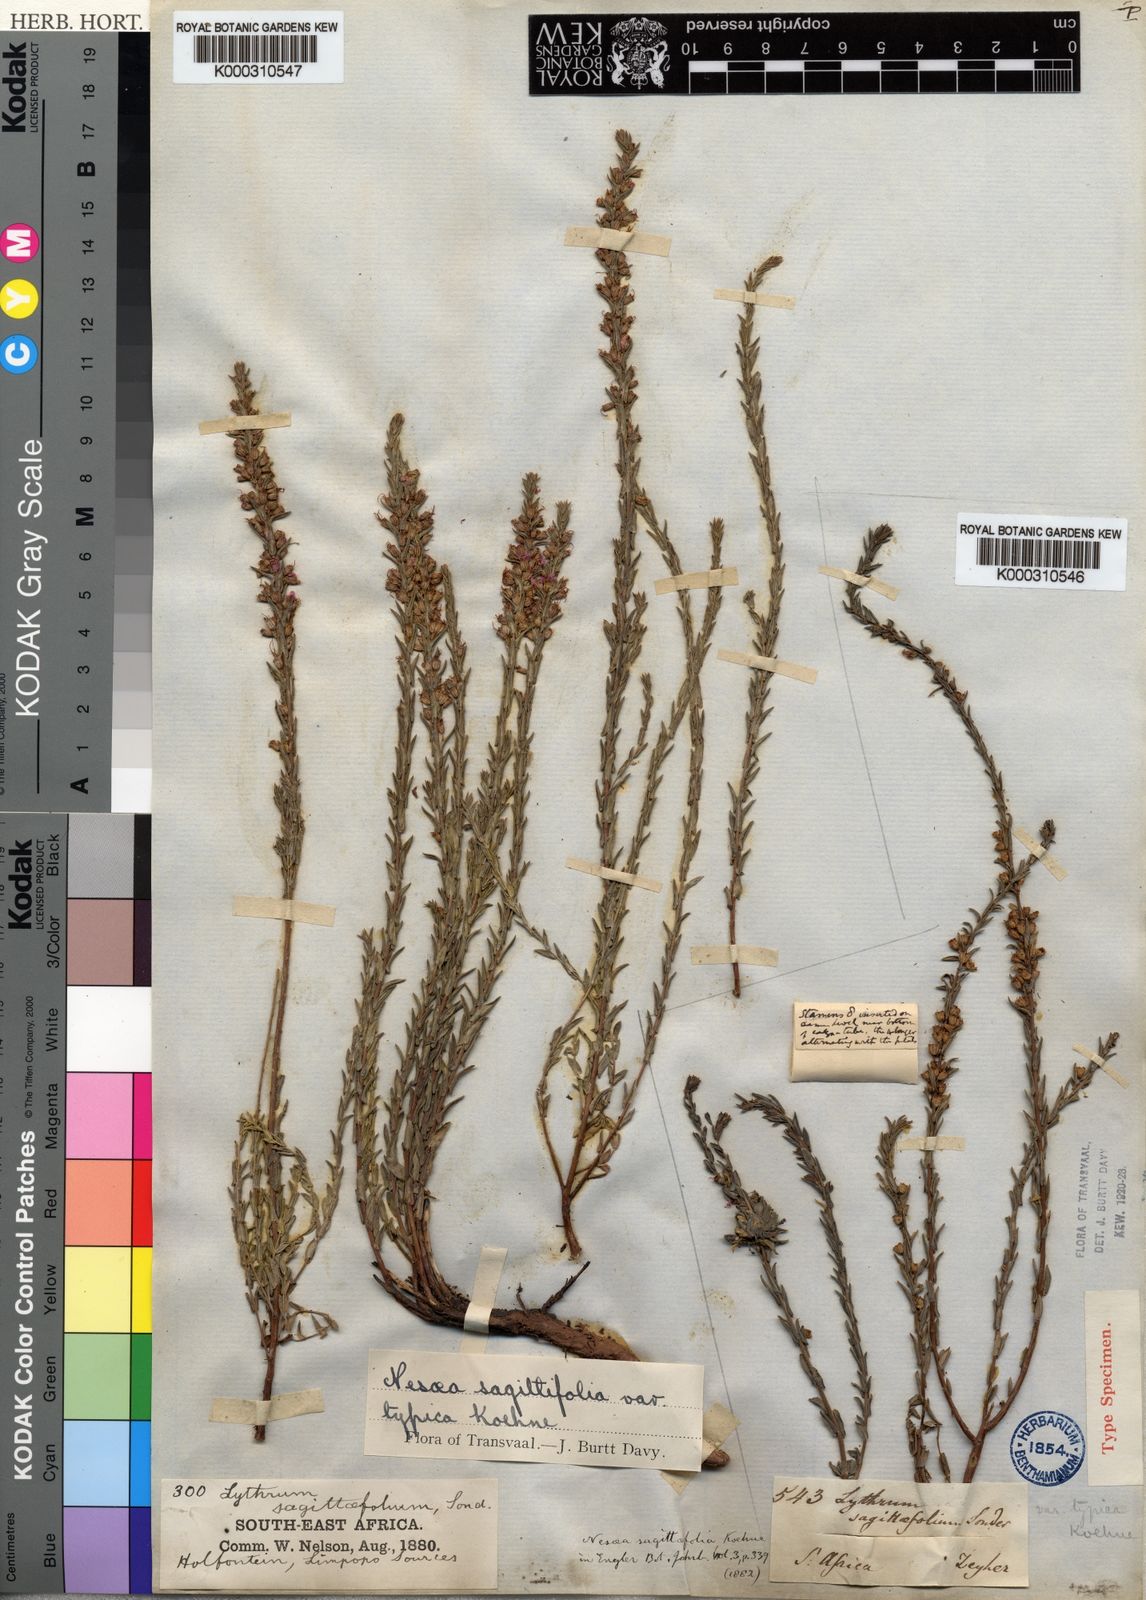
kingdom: Plantae
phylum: Tracheophyta
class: Magnoliopsida
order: Myrtales
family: Lythraceae
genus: Nesaea
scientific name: Nesaea
